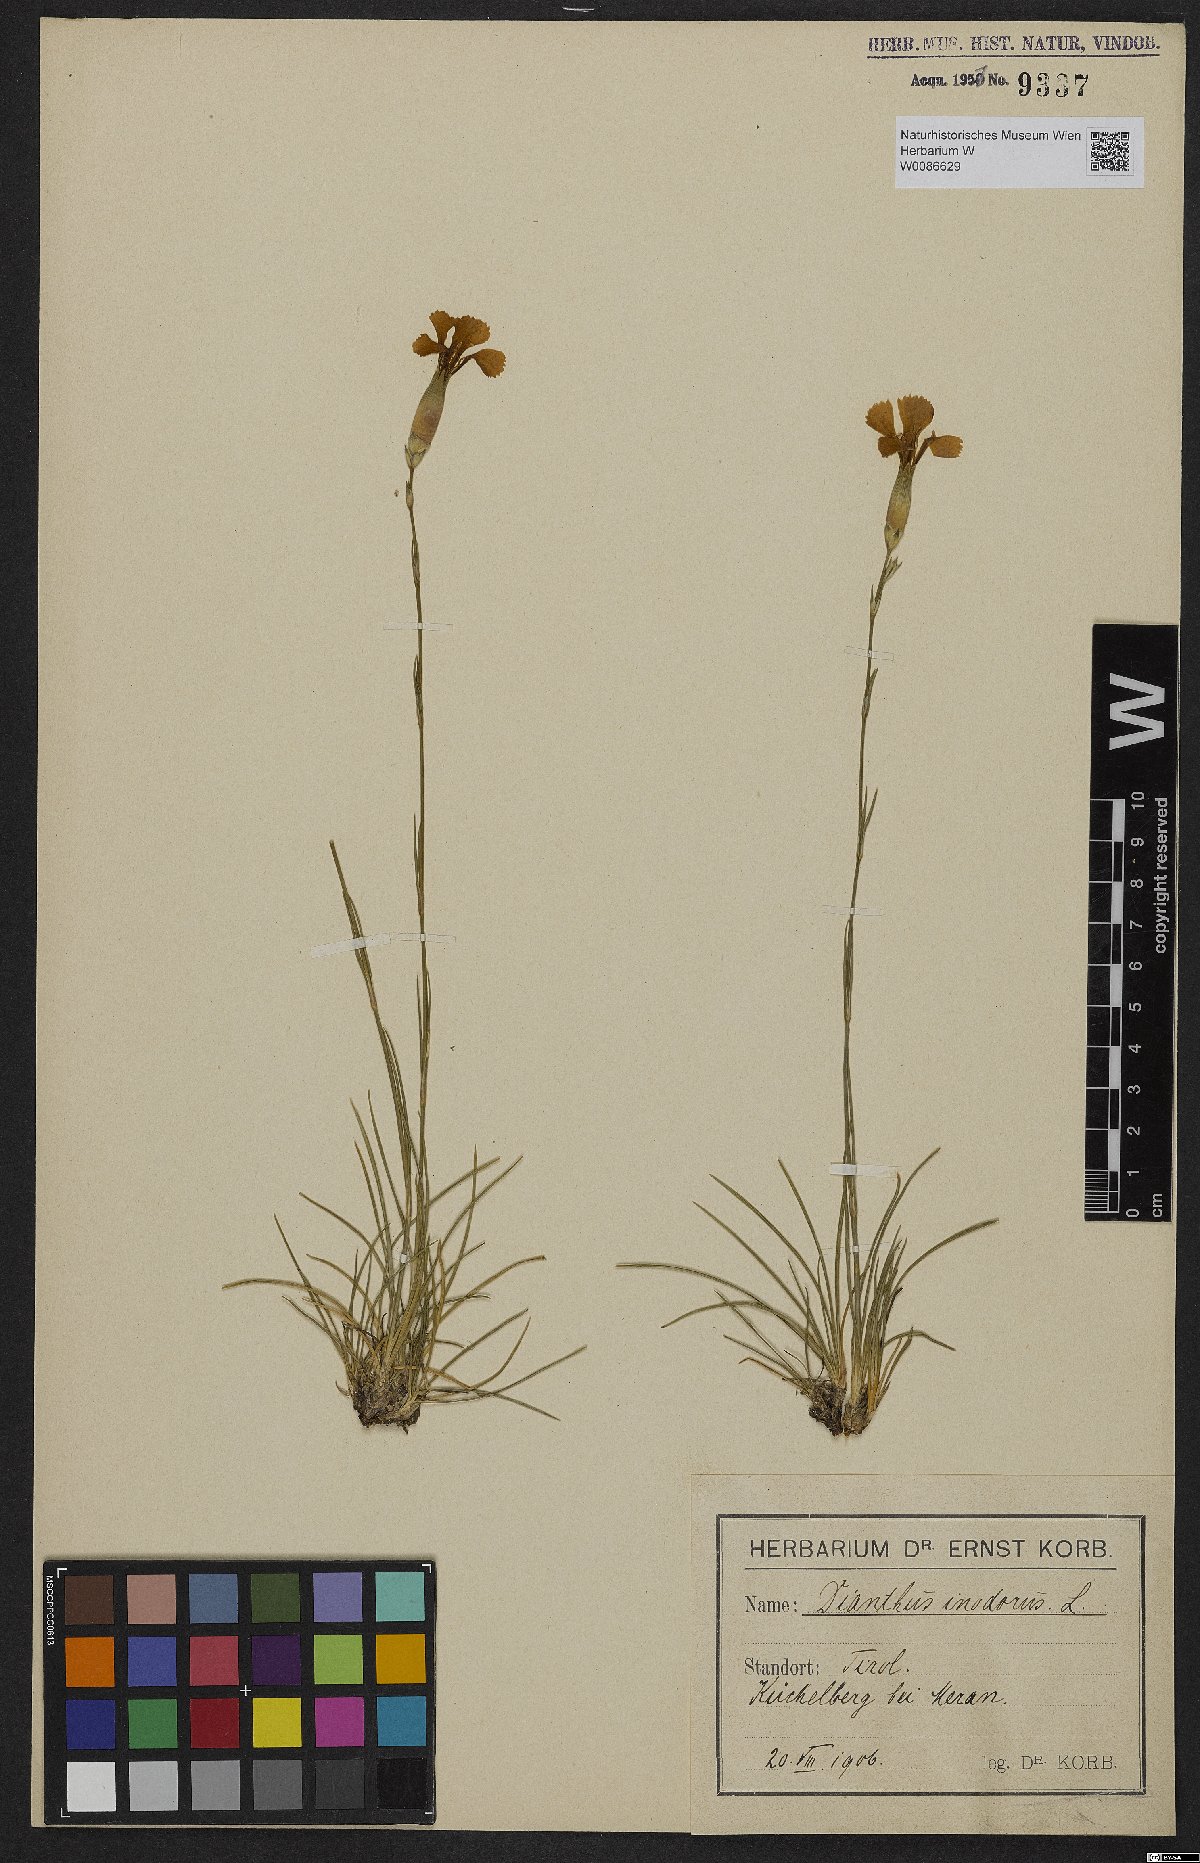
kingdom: Plantae
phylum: Tracheophyta
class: Magnoliopsida
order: Caryophyllales
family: Caryophyllaceae
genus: Dianthus
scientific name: Dianthus sylvestris
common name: Wood pink
